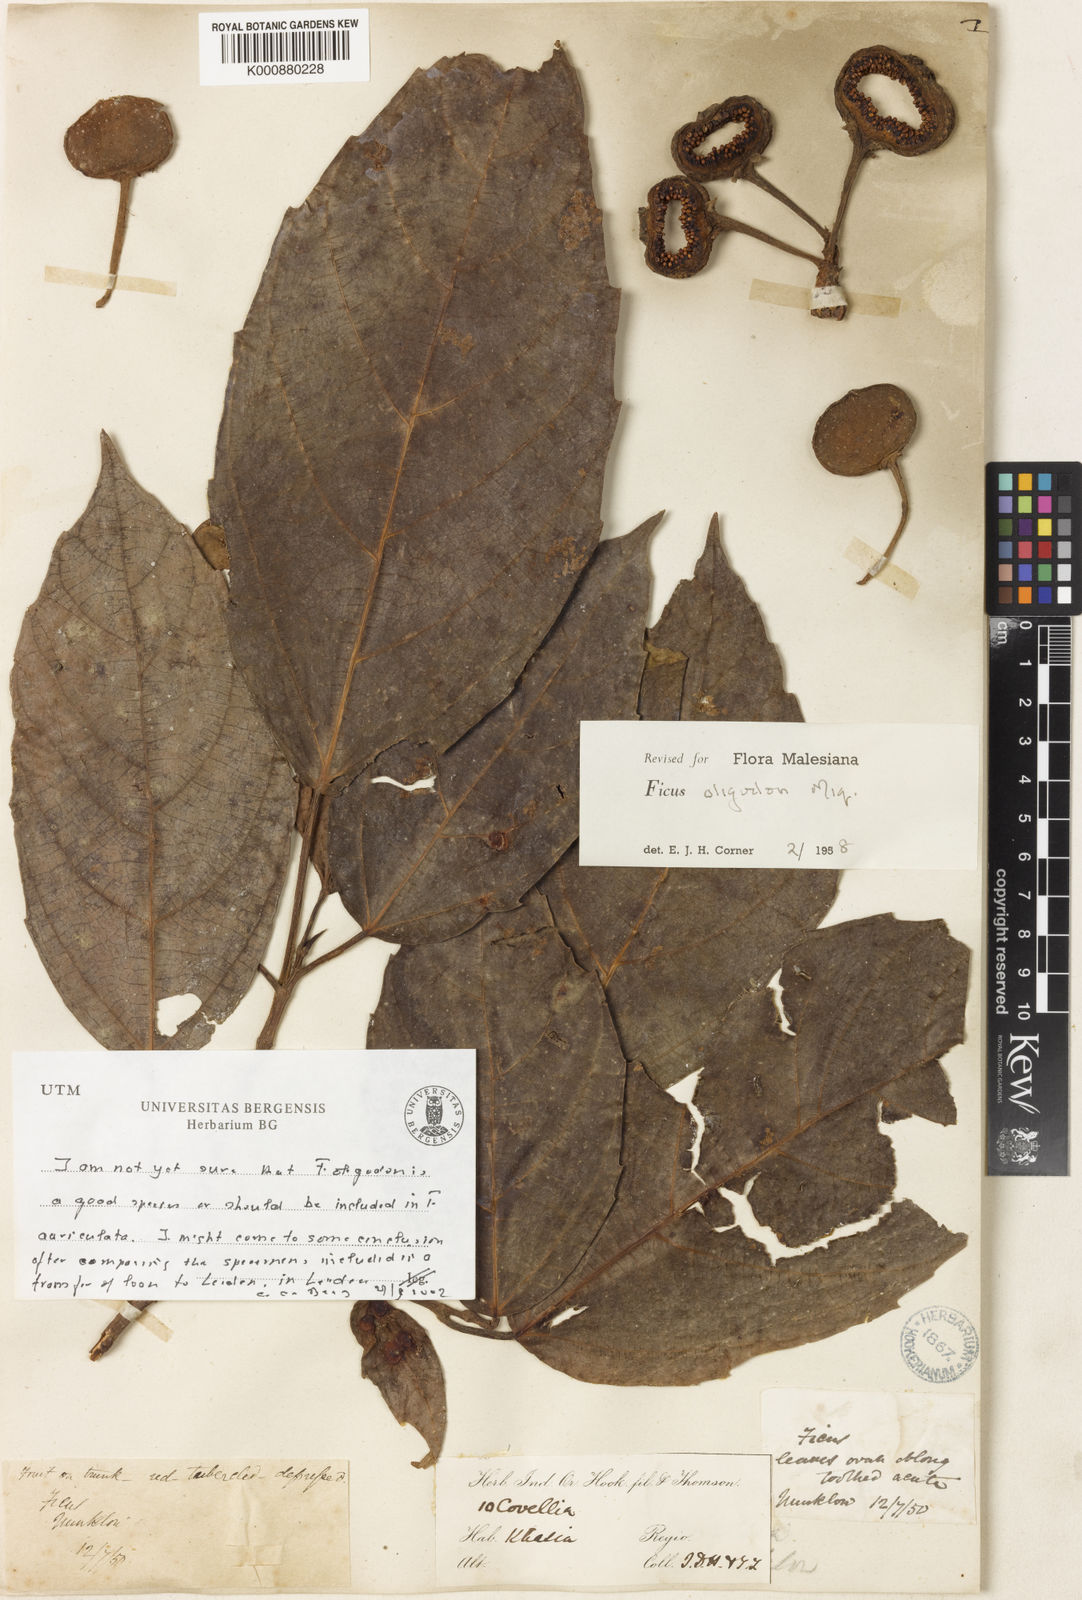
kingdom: Plantae
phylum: Tracheophyta
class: Magnoliopsida
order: Rosales
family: Moraceae
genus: Ficus
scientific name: Ficus auriculata
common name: Roxburgh fig
